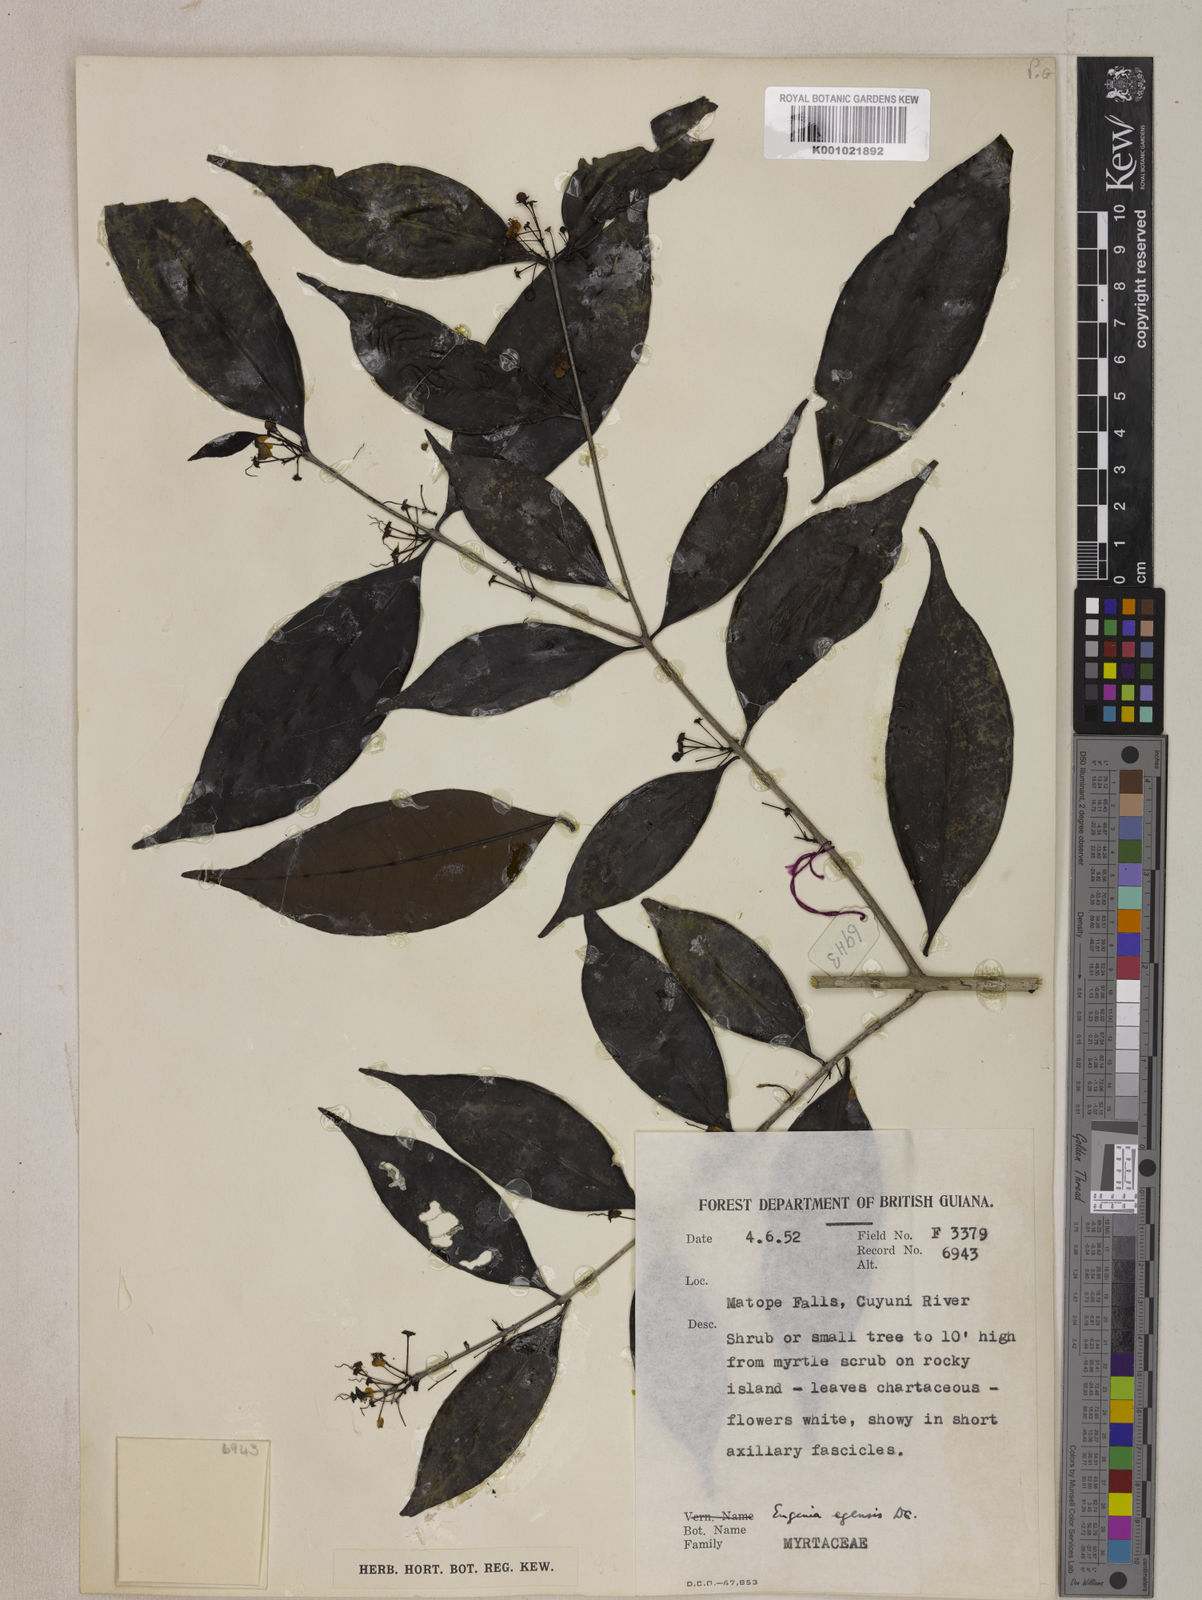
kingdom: Plantae
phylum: Tracheophyta
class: Magnoliopsida
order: Myrtales
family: Myrtaceae
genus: Eugenia
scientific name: Eugenia egensis
